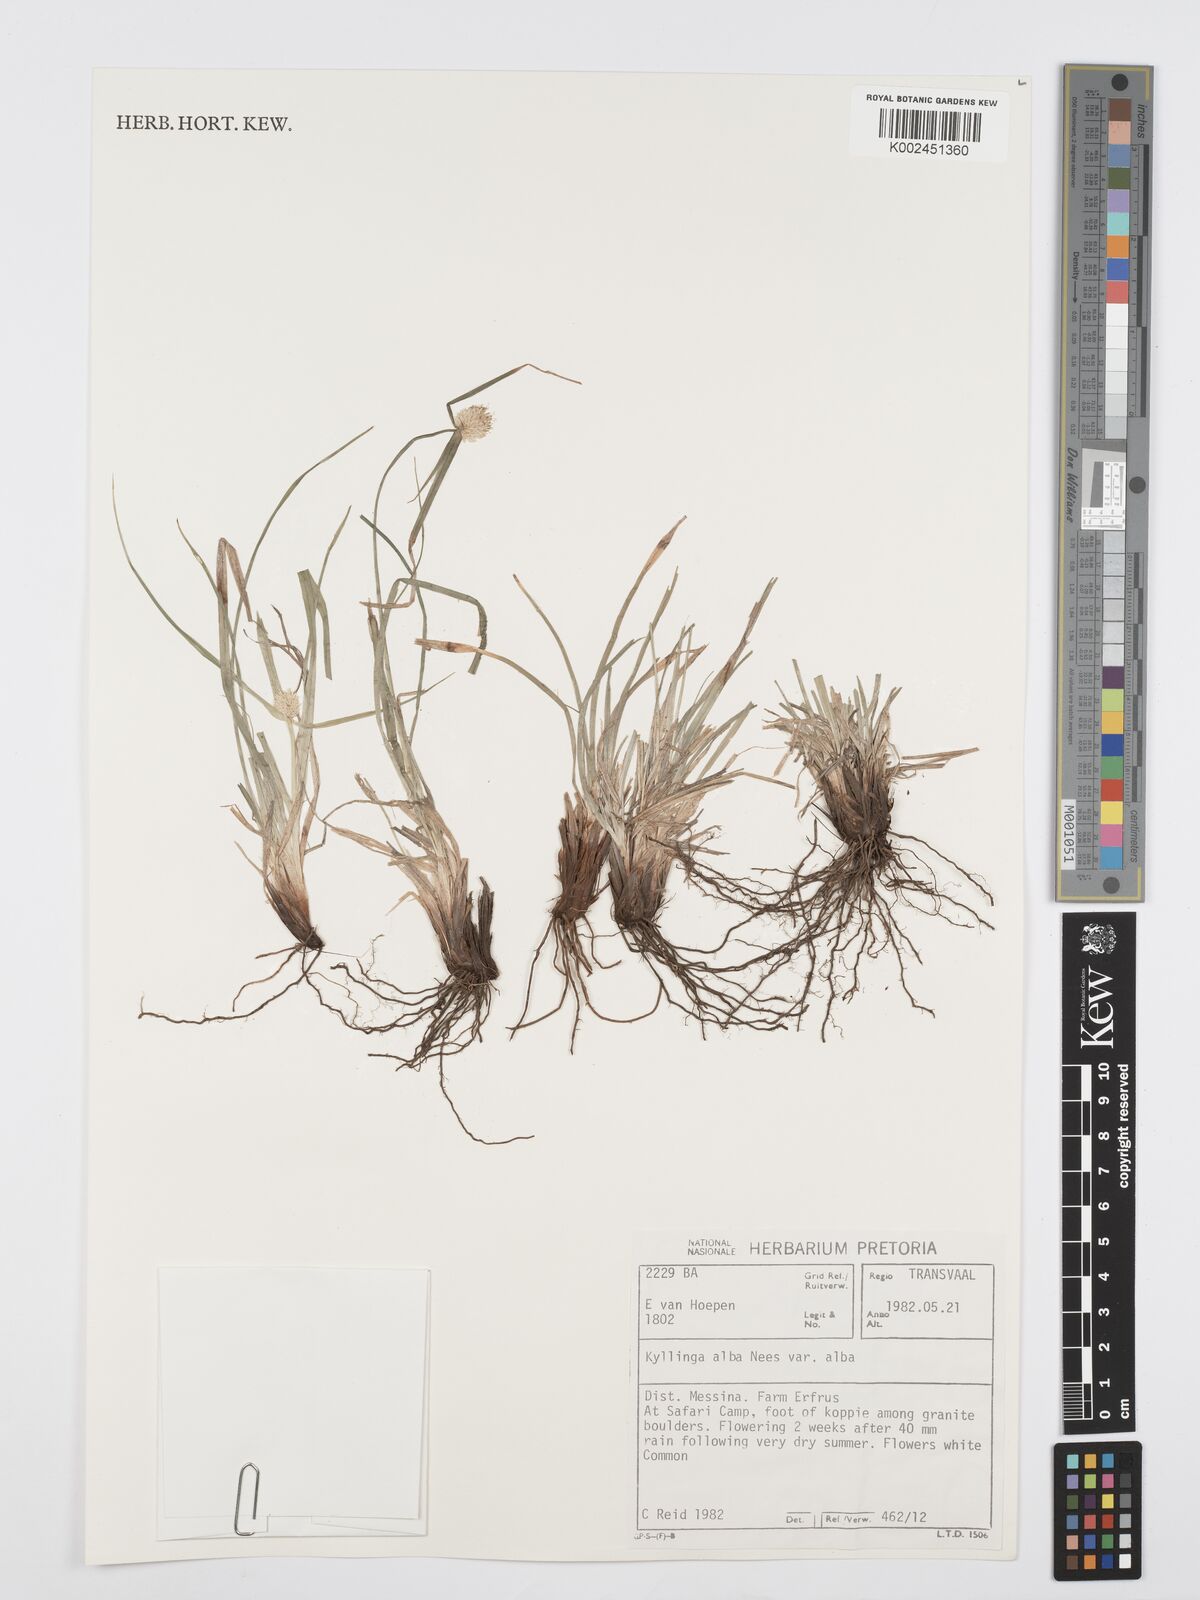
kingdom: Plantae
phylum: Tracheophyta
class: Liliopsida
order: Poales
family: Cyperaceae
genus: Cyperus
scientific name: Cyperus
